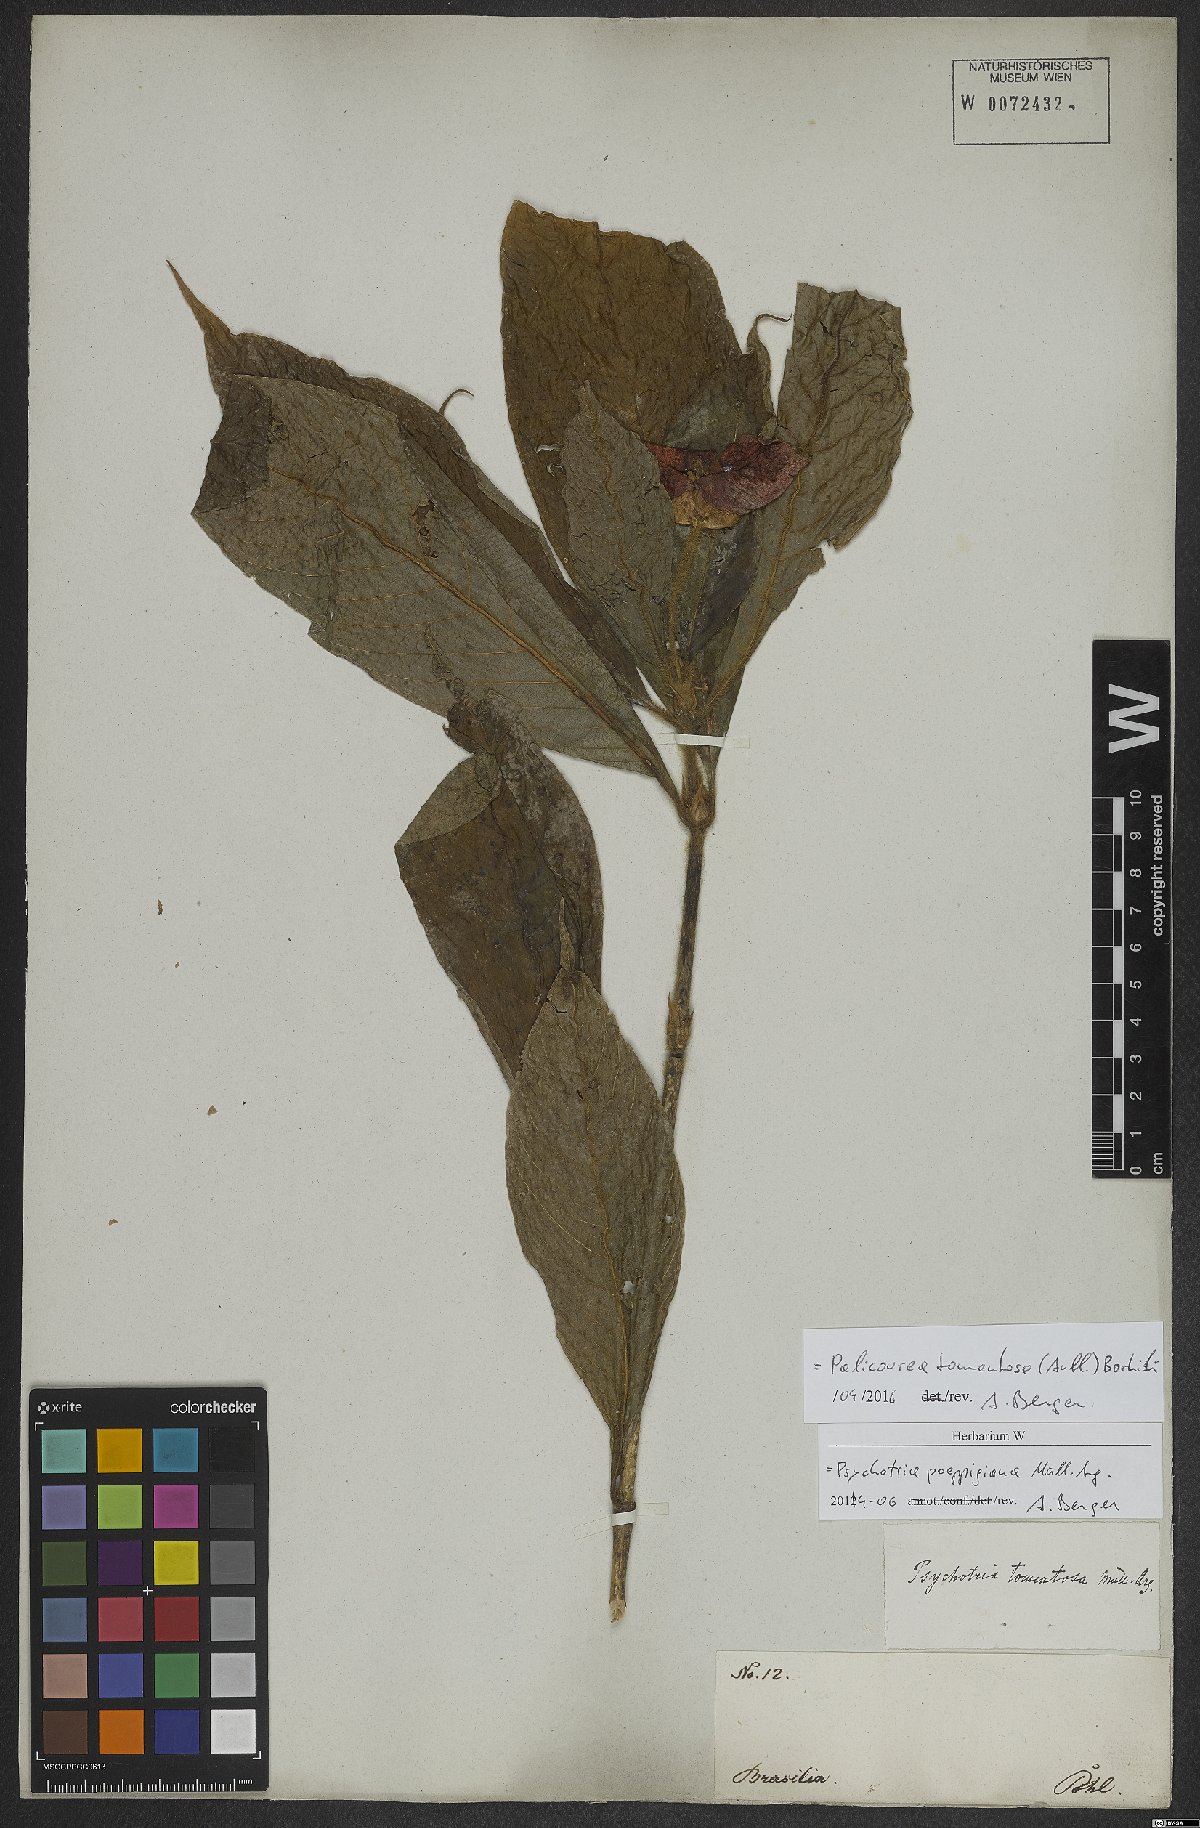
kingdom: Plantae
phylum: Tracheophyta
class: Magnoliopsida
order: Gentianales
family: Rubiaceae
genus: Palicourea
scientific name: Palicourea tomentosa
